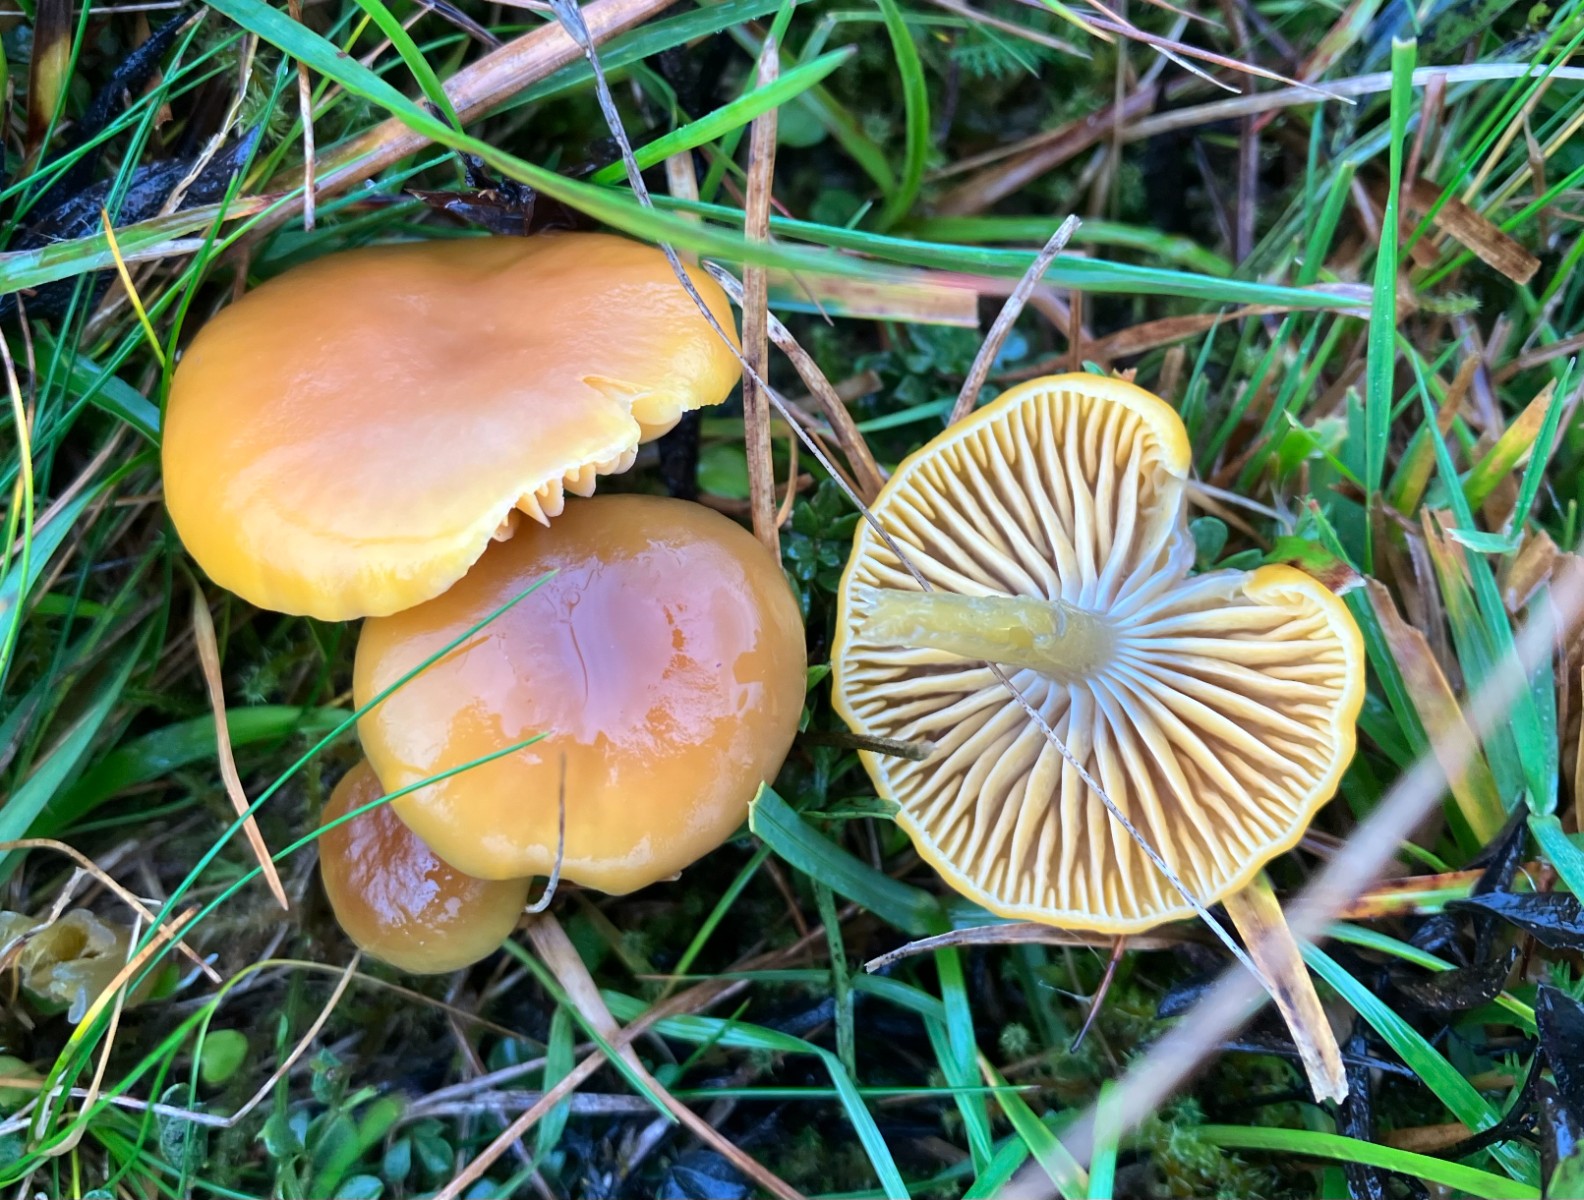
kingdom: Fungi
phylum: Basidiomycota
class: Agaricomycetes
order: Agaricales
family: Hygrophoraceae
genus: Gliophorus
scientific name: Gliophorus laetus
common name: brusk-vokshat
